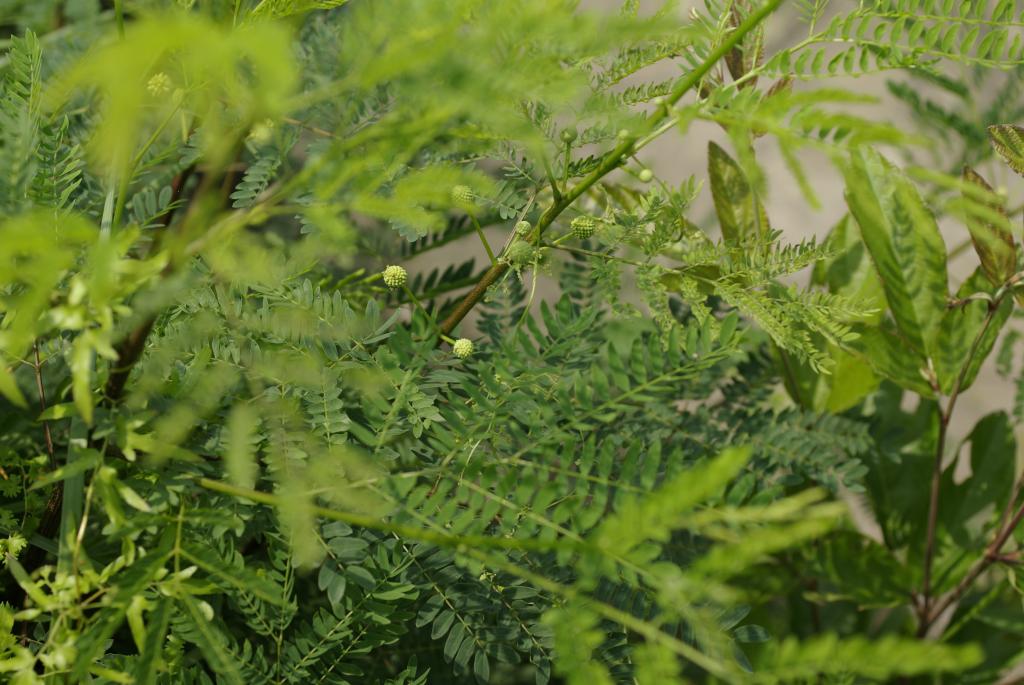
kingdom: Plantae
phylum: Tracheophyta
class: Magnoliopsida
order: Fabales
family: Fabaceae
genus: Leucaena
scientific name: Leucaena leucocephala
